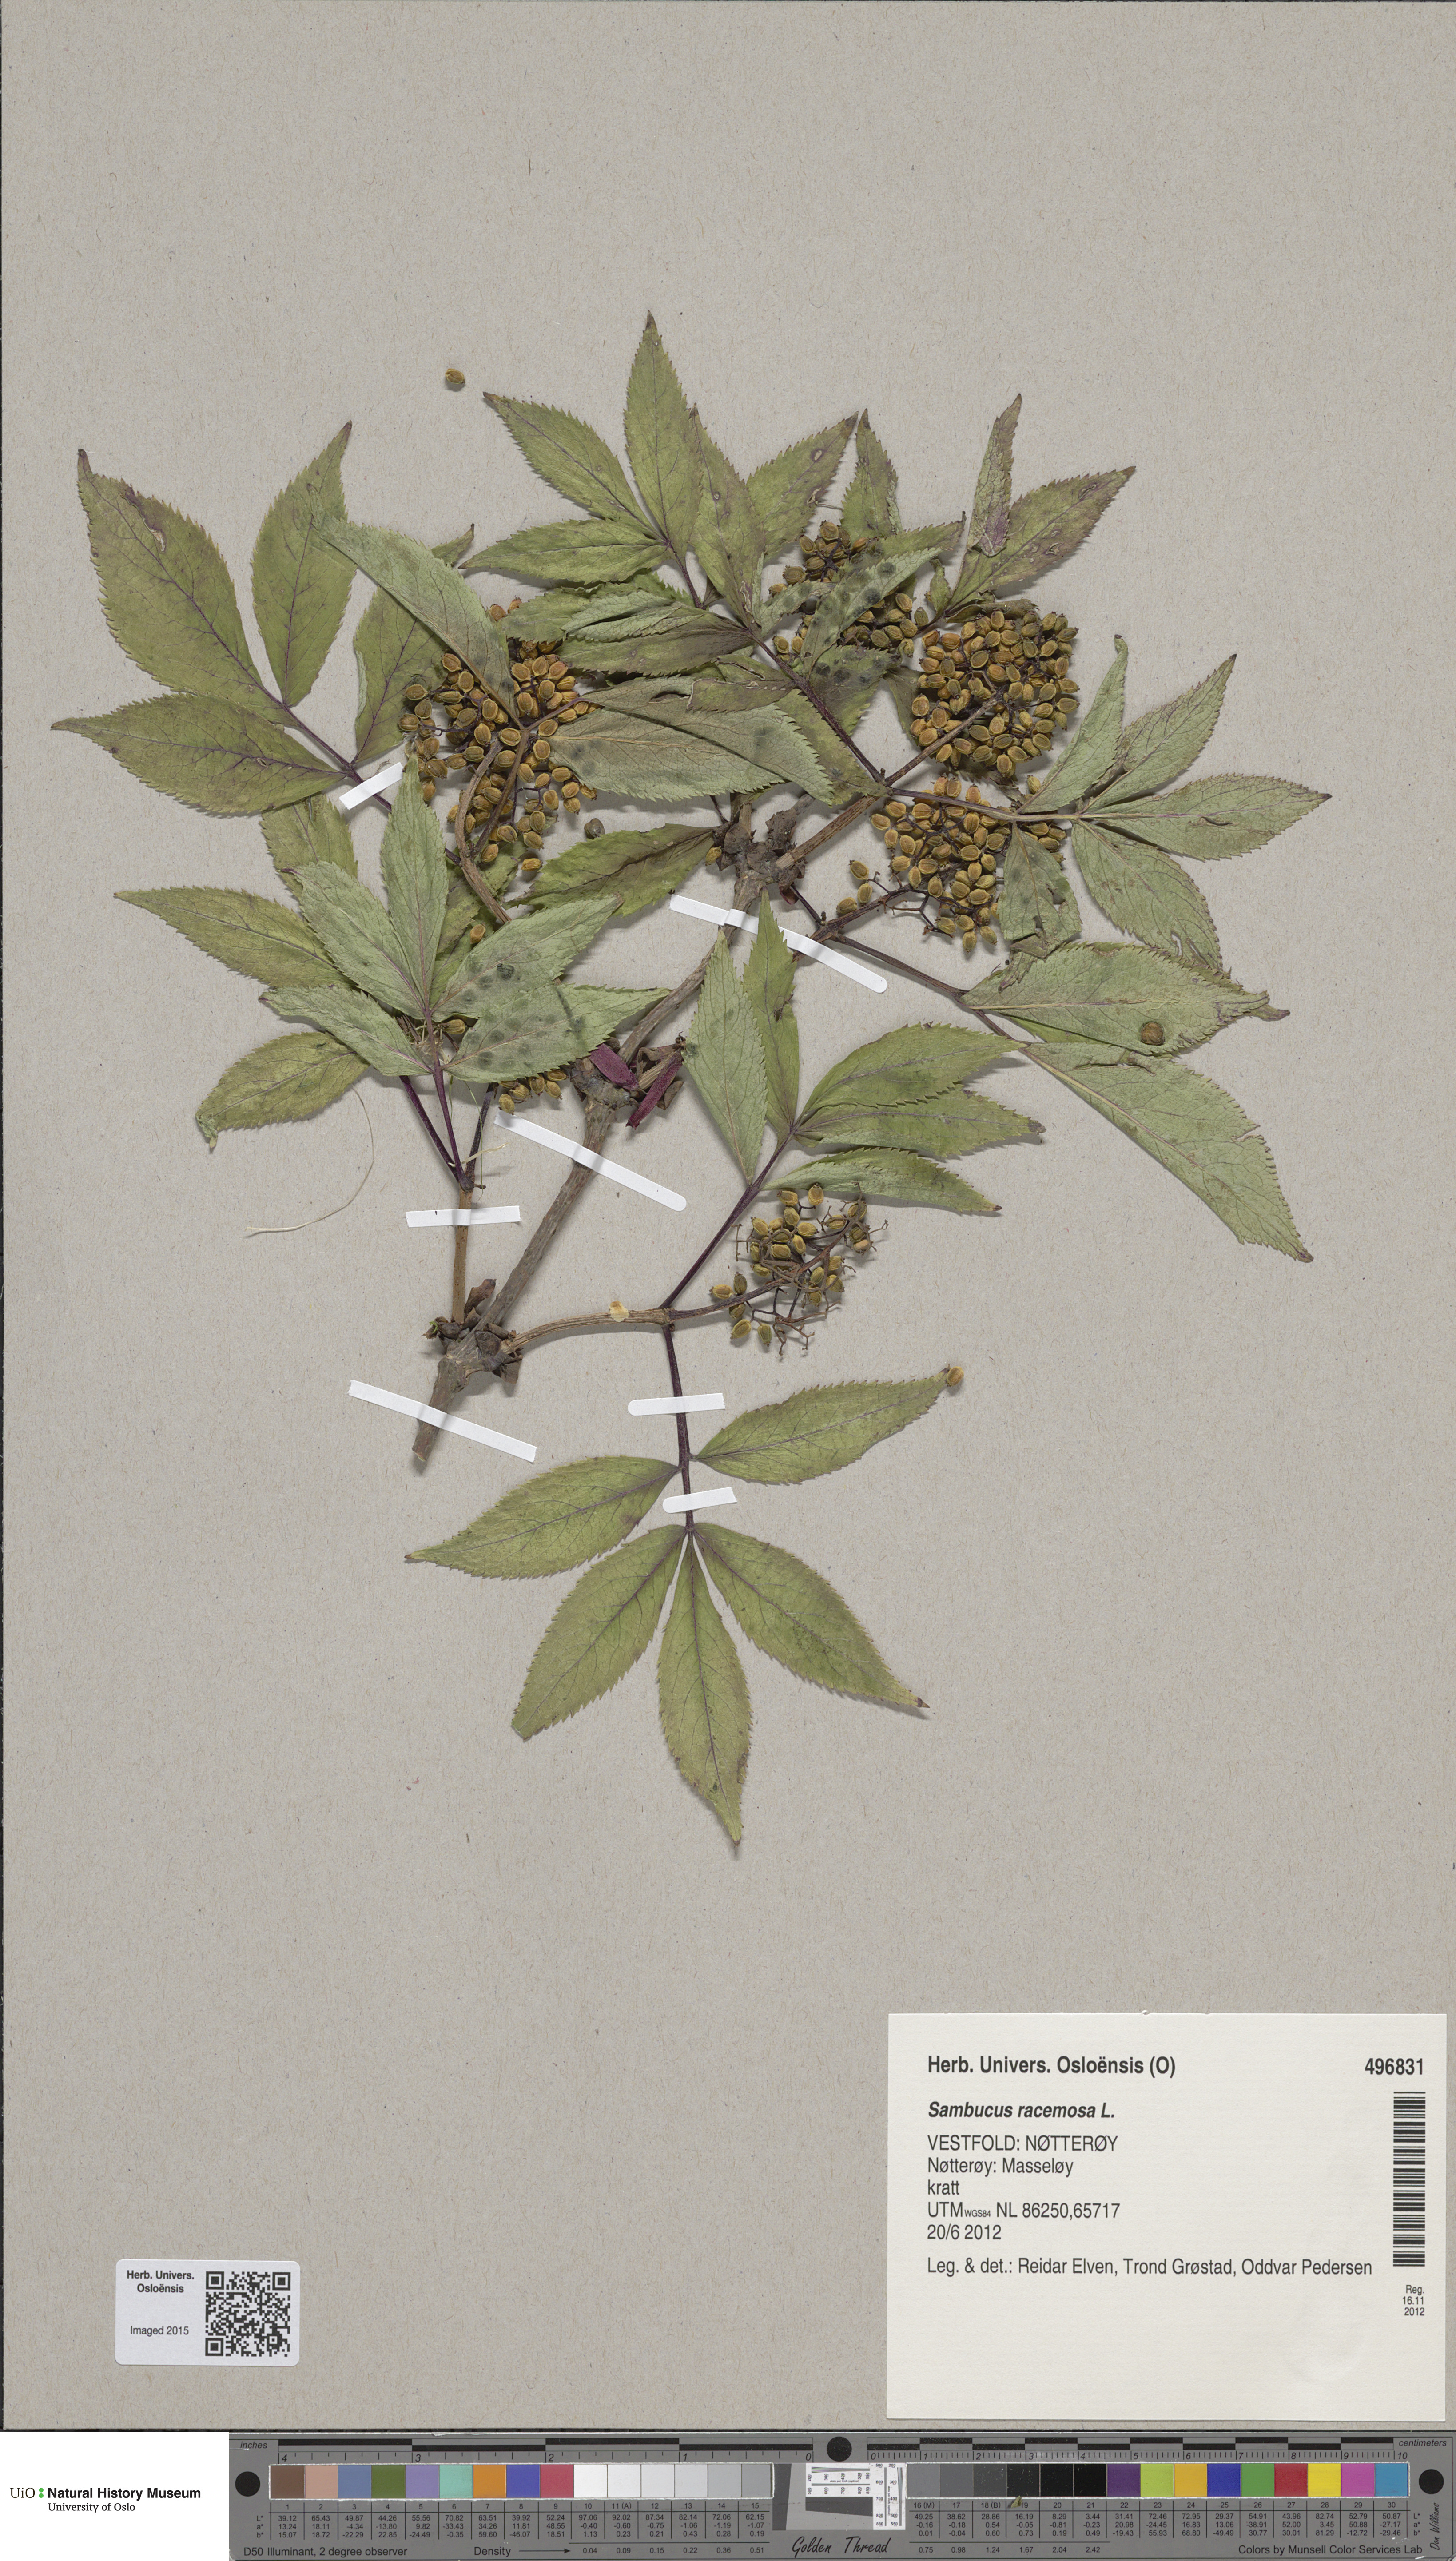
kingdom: Plantae
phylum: Tracheophyta
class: Magnoliopsida
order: Dipsacales
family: Viburnaceae
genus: Sambucus
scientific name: Sambucus racemosa
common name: Red-berried elder
